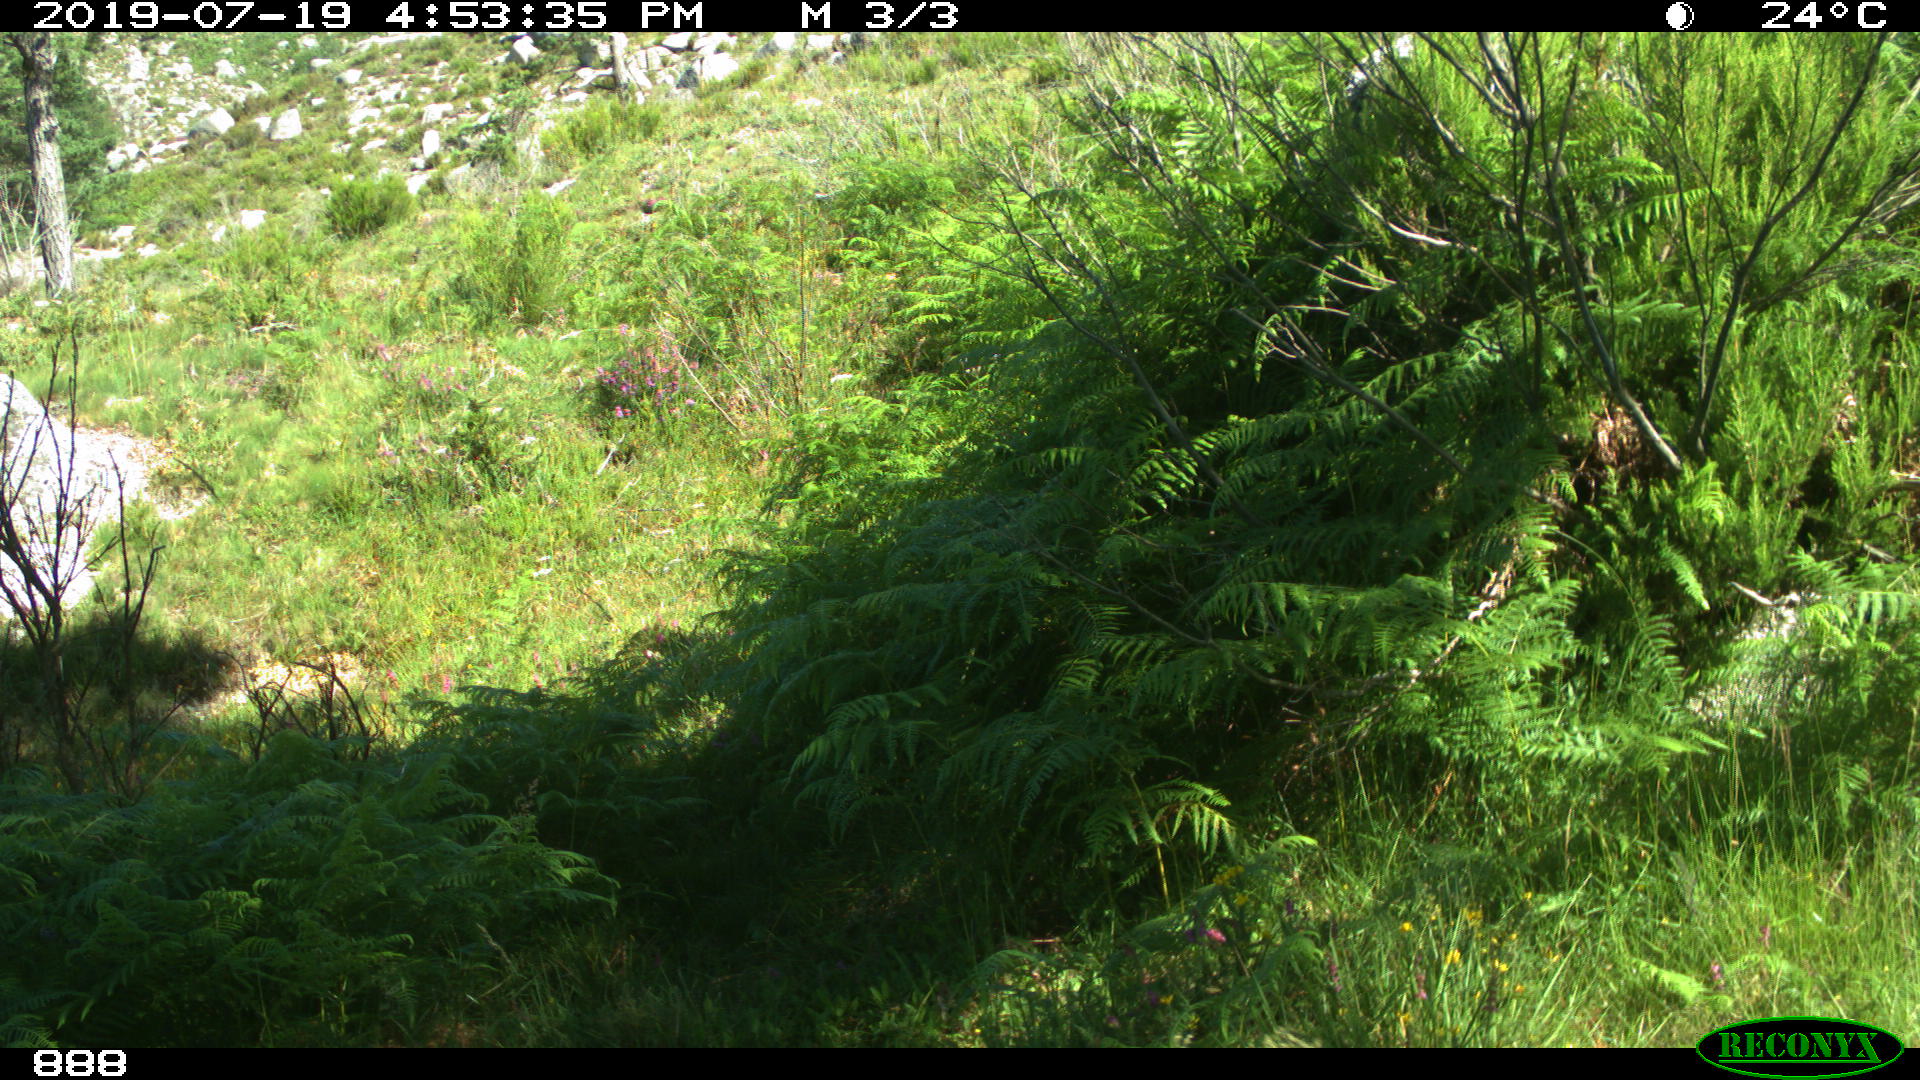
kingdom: Animalia
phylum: Chordata
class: Mammalia
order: Artiodactyla
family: Cervidae
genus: Capreolus
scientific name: Capreolus capreolus
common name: Western roe deer
